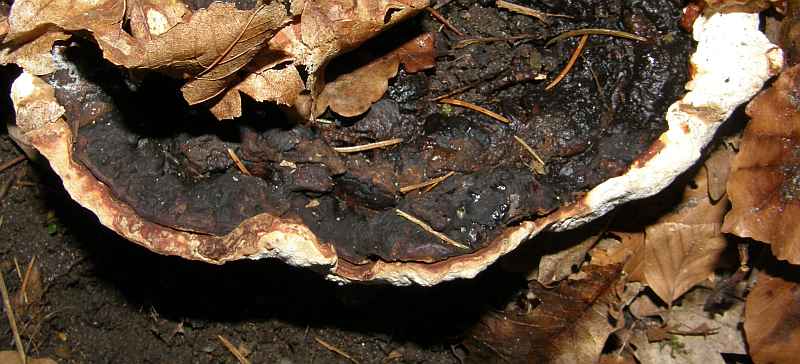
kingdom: Fungi
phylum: Basidiomycota
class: Agaricomycetes
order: Russulales
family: Bondarzewiaceae
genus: Heterobasidion
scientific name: Heterobasidion annosum
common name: almindelig rodfordærver
